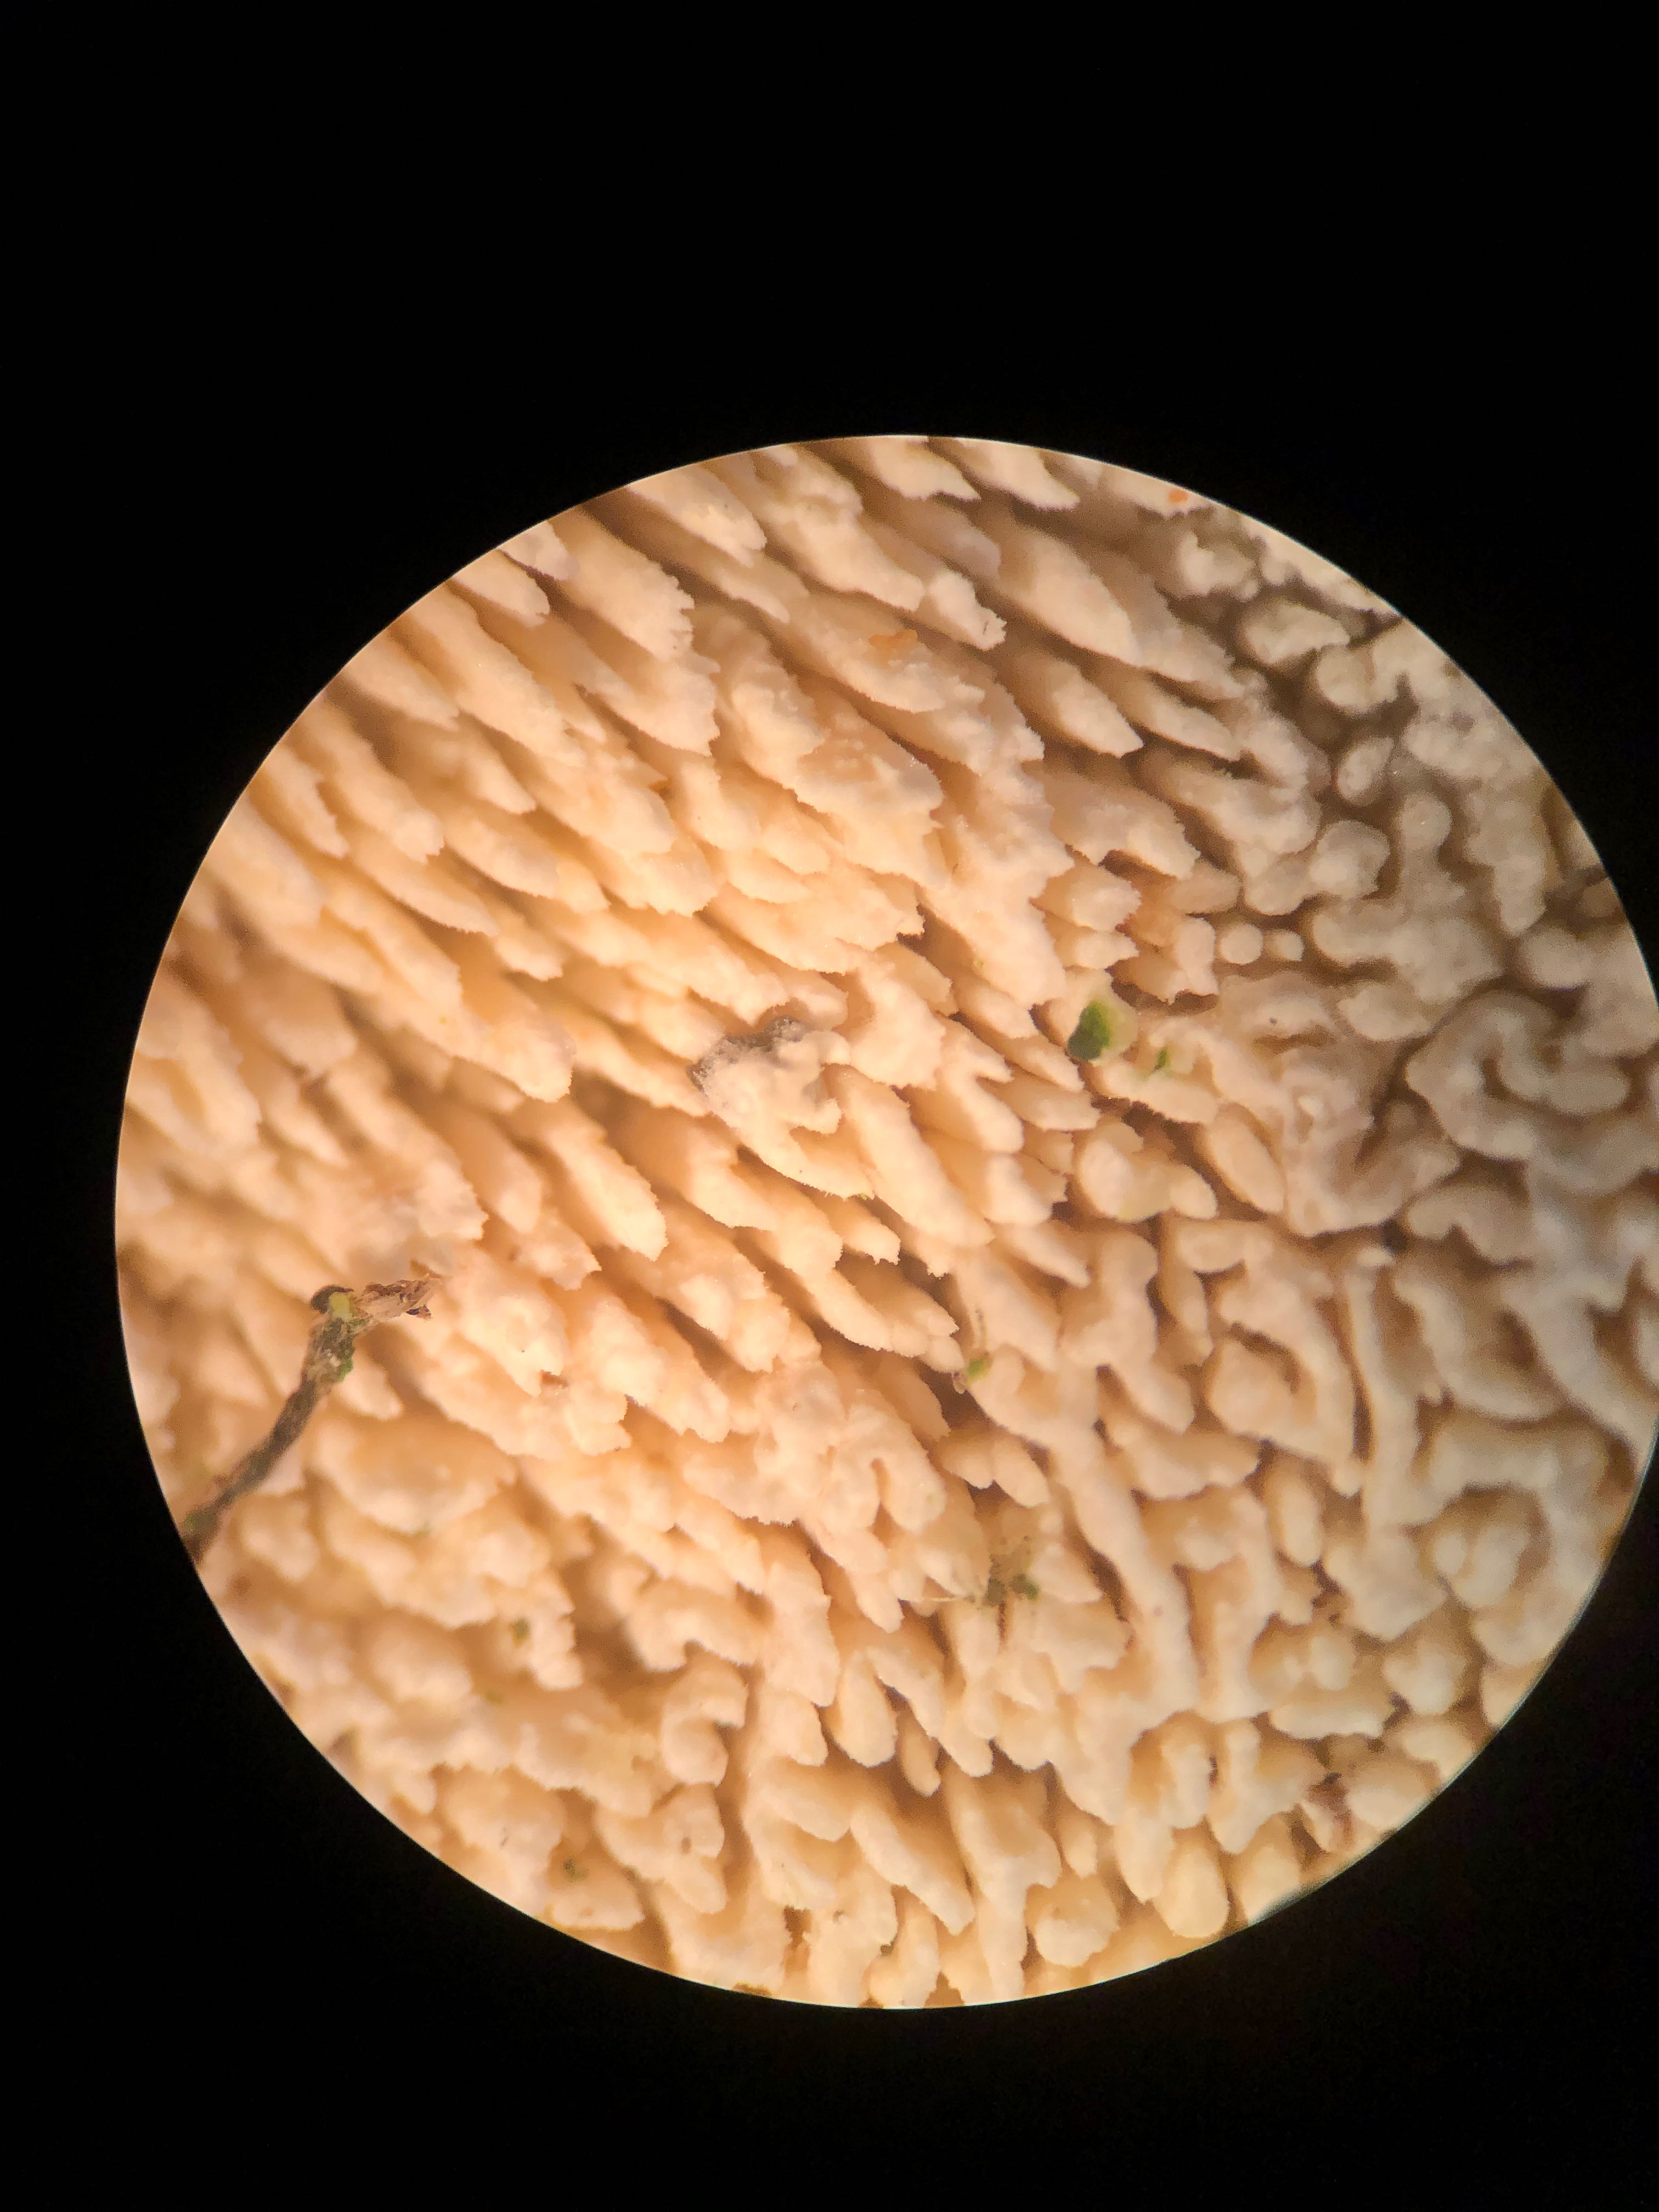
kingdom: Fungi
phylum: Basidiomycota
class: Agaricomycetes
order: Hymenochaetales
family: Schizoporaceae
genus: Schizopora
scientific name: Schizopora paradoxa
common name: hvid tandsvamp
